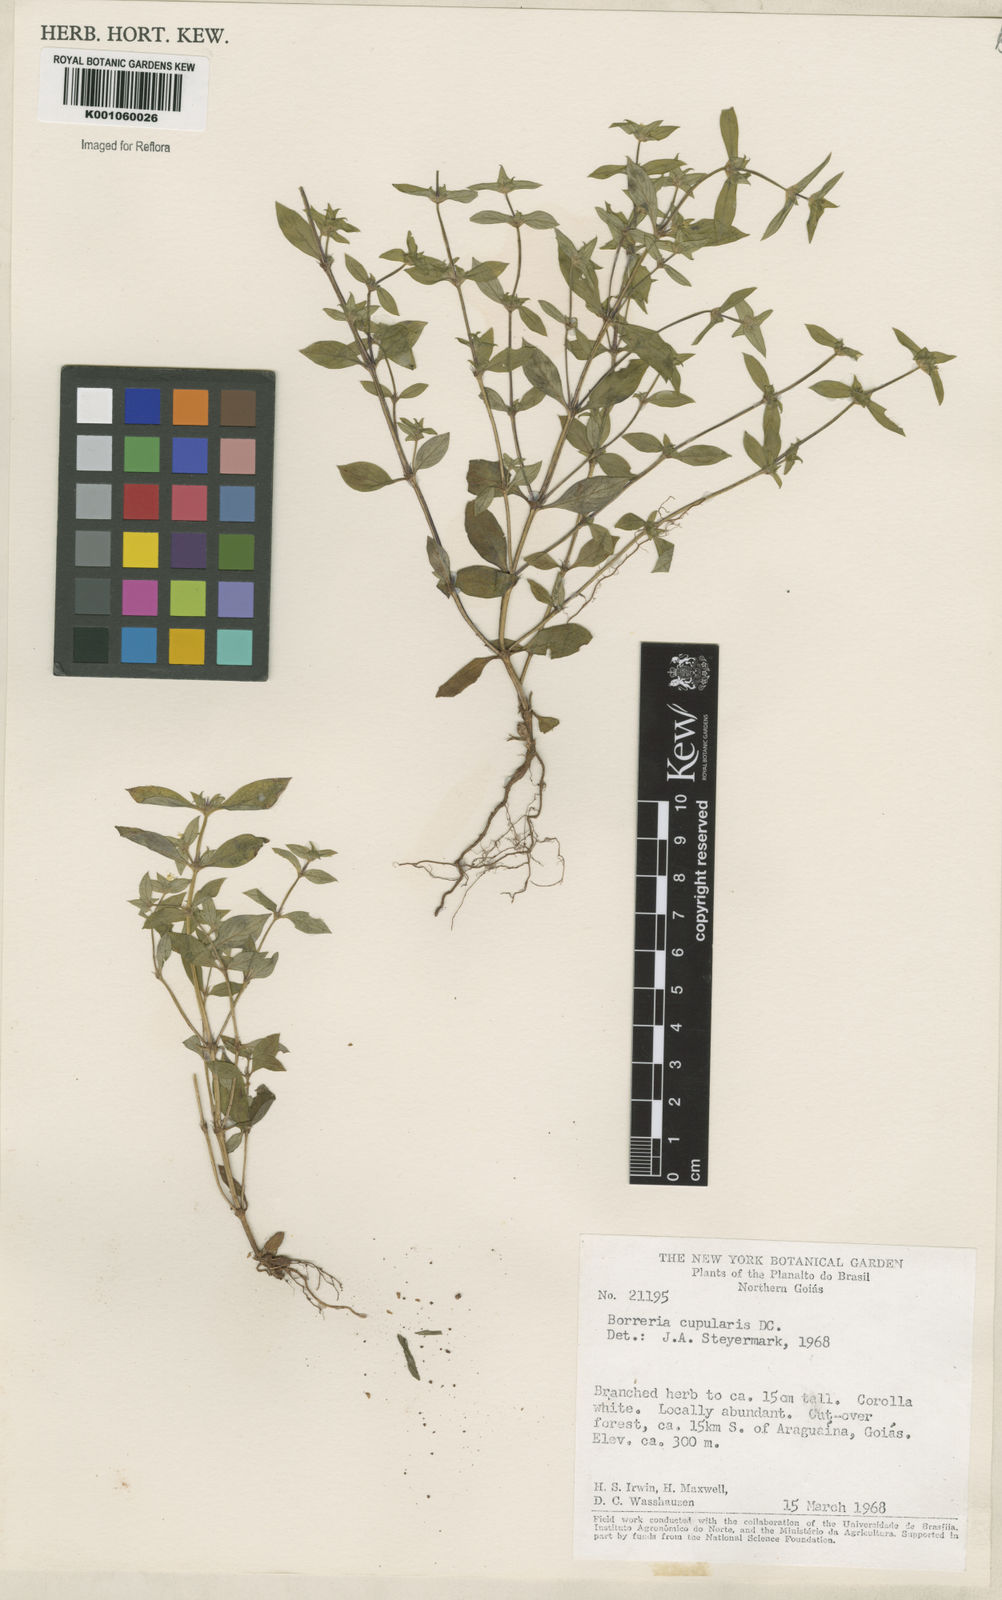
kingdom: Plantae
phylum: Tracheophyta
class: Magnoliopsida
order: Gentianales
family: Rubiaceae
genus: Spermacoce
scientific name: Spermacoce cupularis
